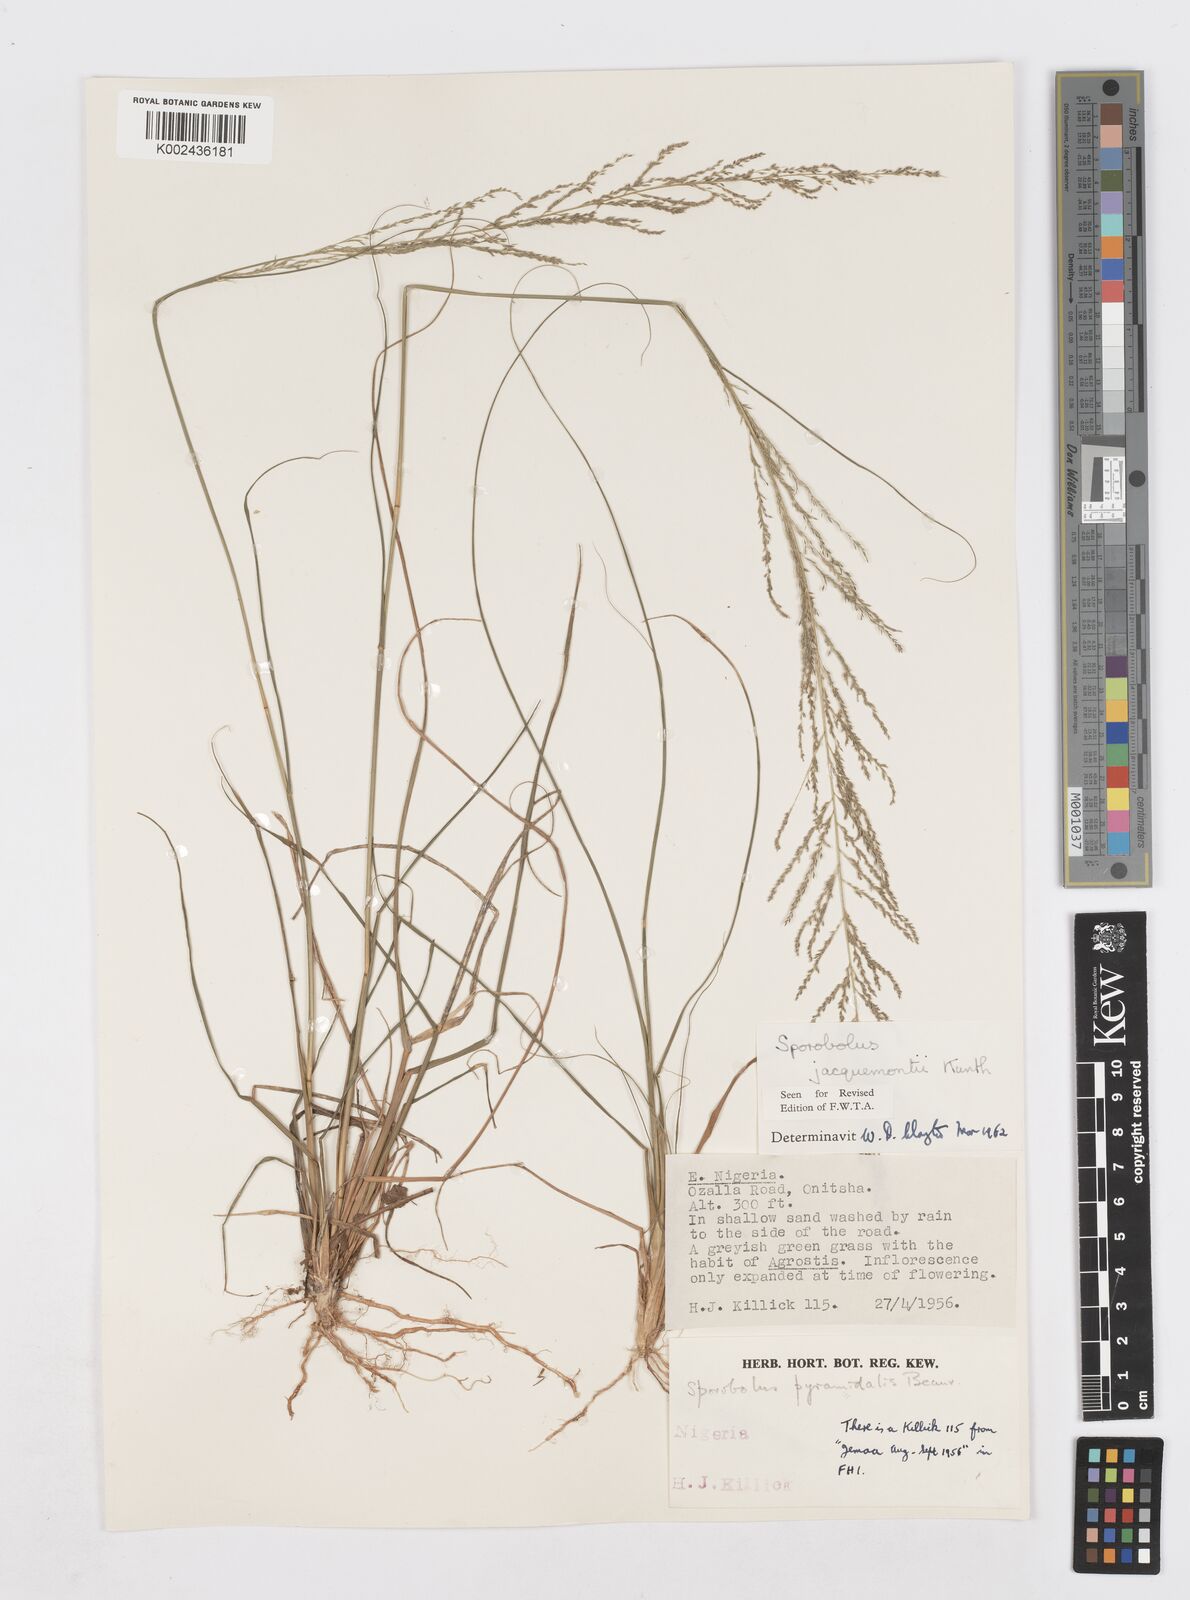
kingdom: Plantae
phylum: Tracheophyta
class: Liliopsida
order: Poales
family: Poaceae
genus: Sporobolus
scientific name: Sporobolus pyramidalis
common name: West indian dropseed
